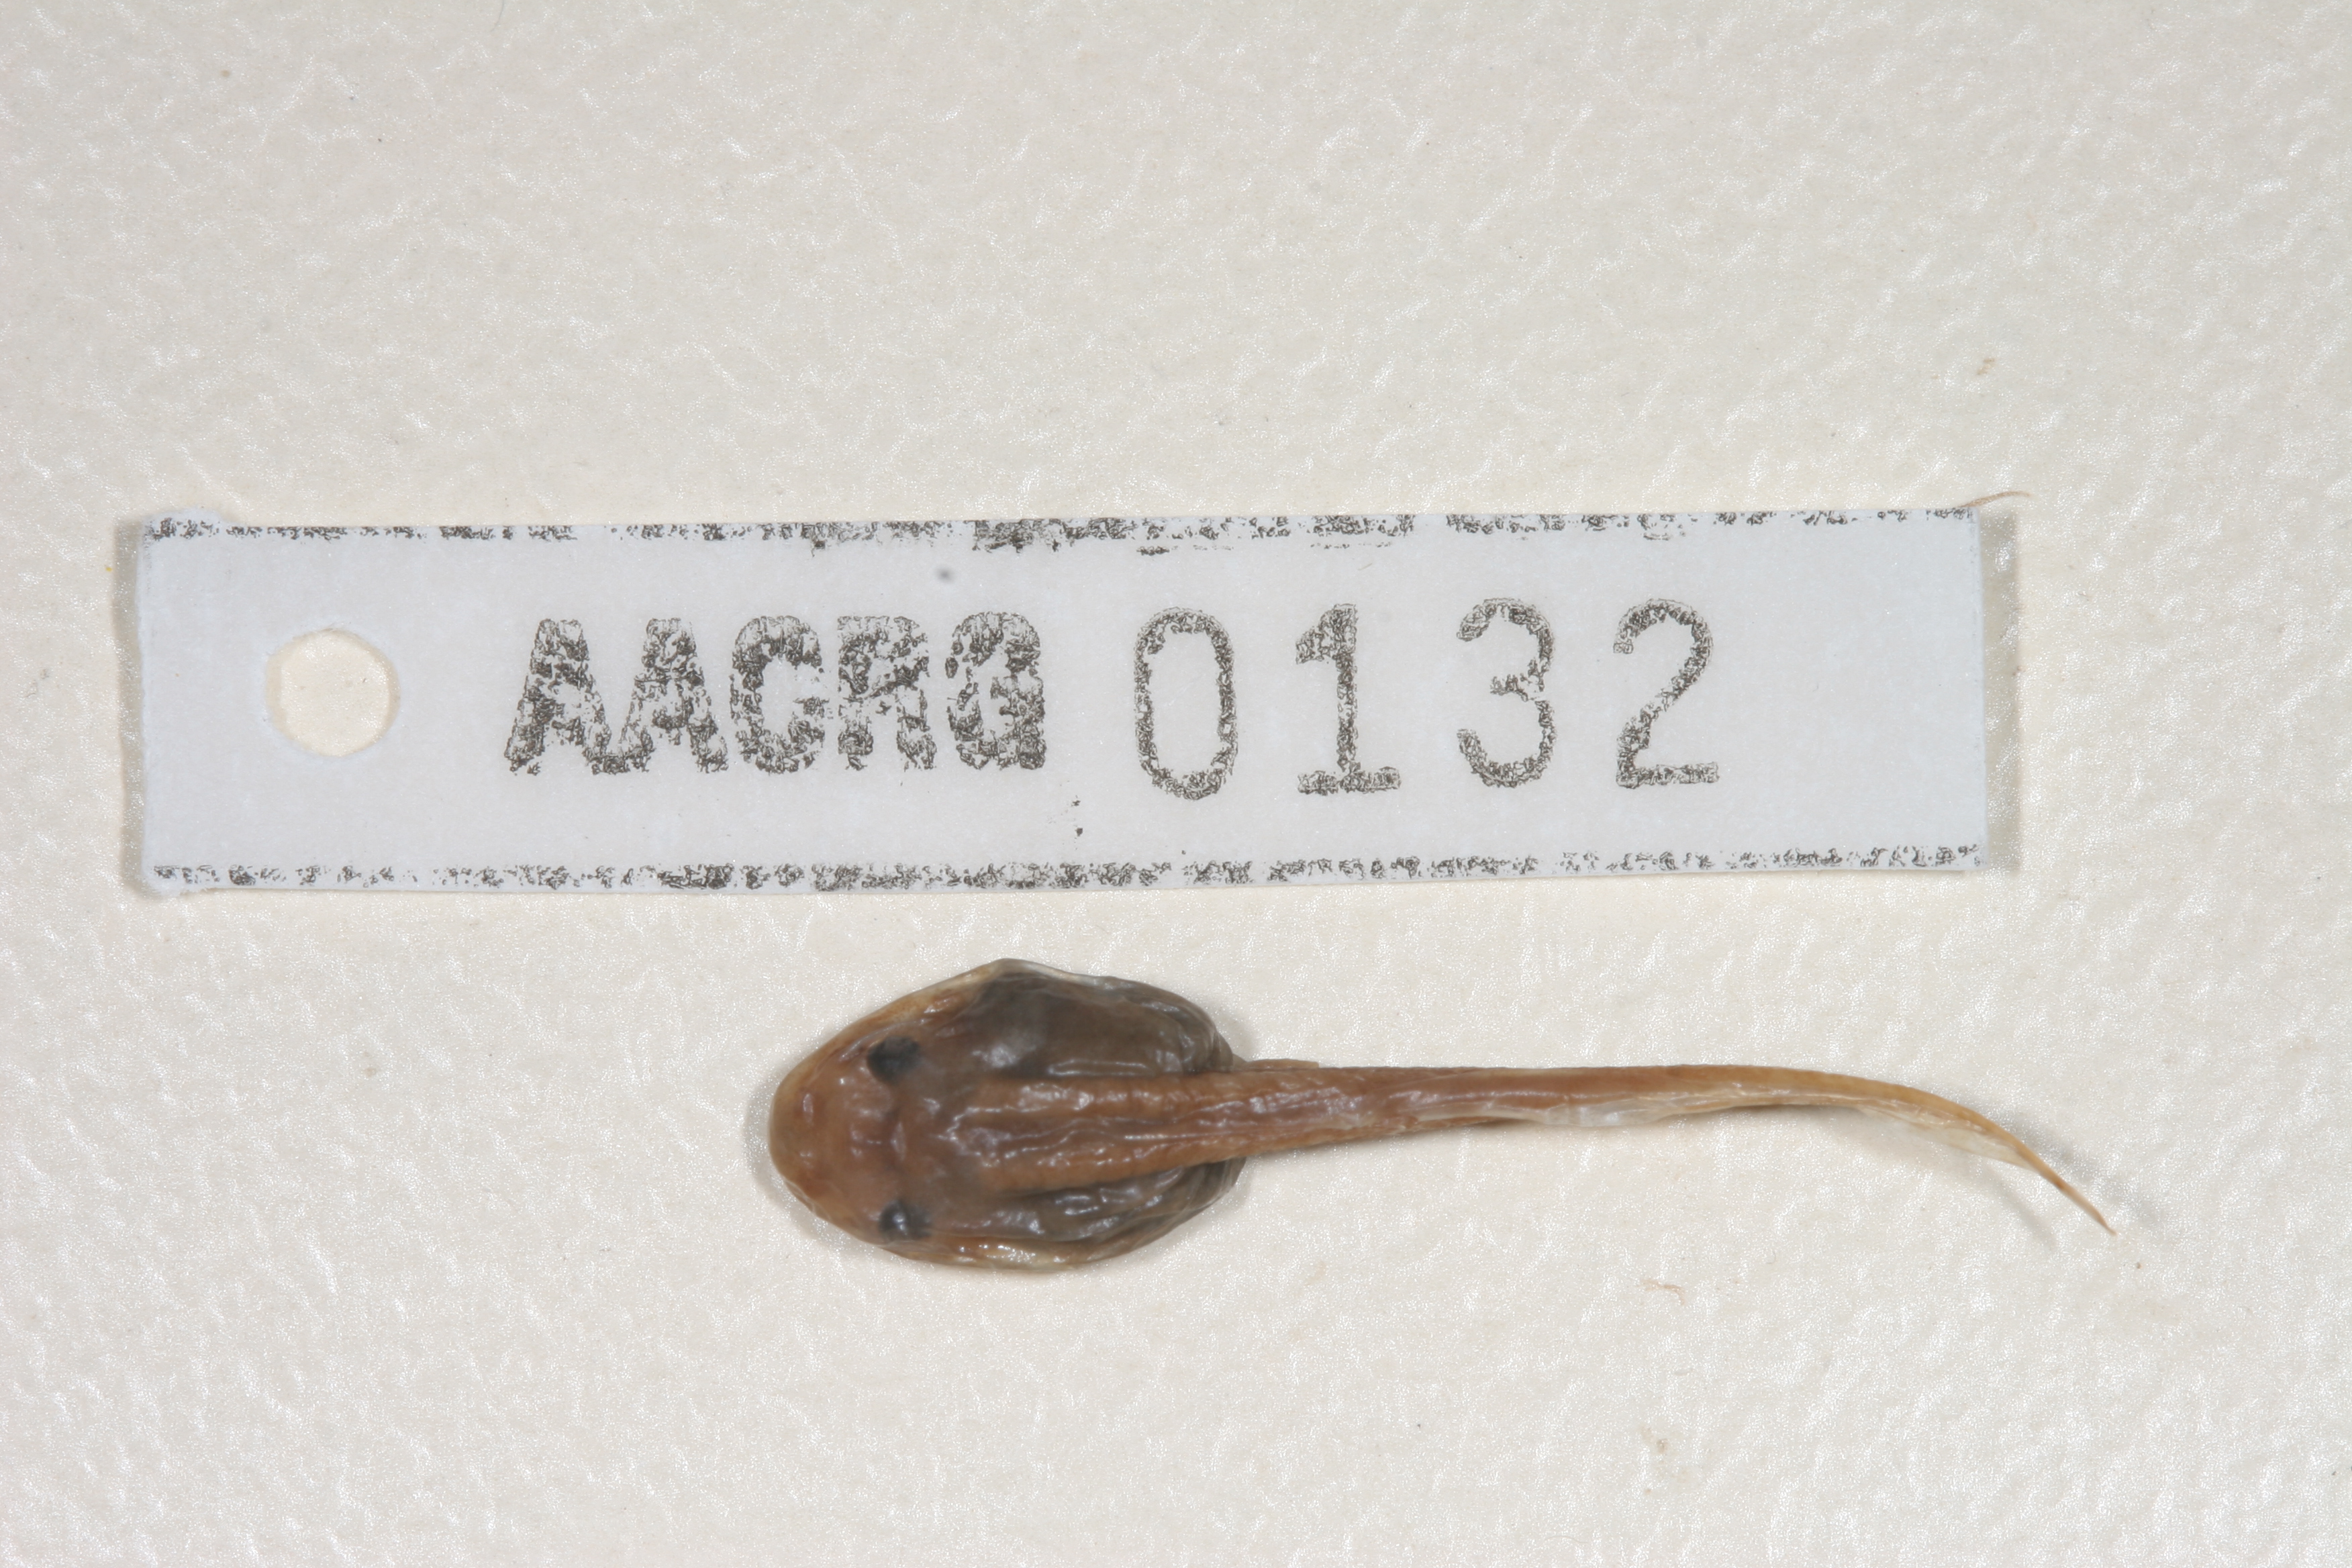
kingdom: Animalia
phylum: Chordata
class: Amphibia
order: Anura
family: Hyperoliidae
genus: Hyperolius
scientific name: Hyperolius semidiscus
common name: Yellow-striped reed frog
